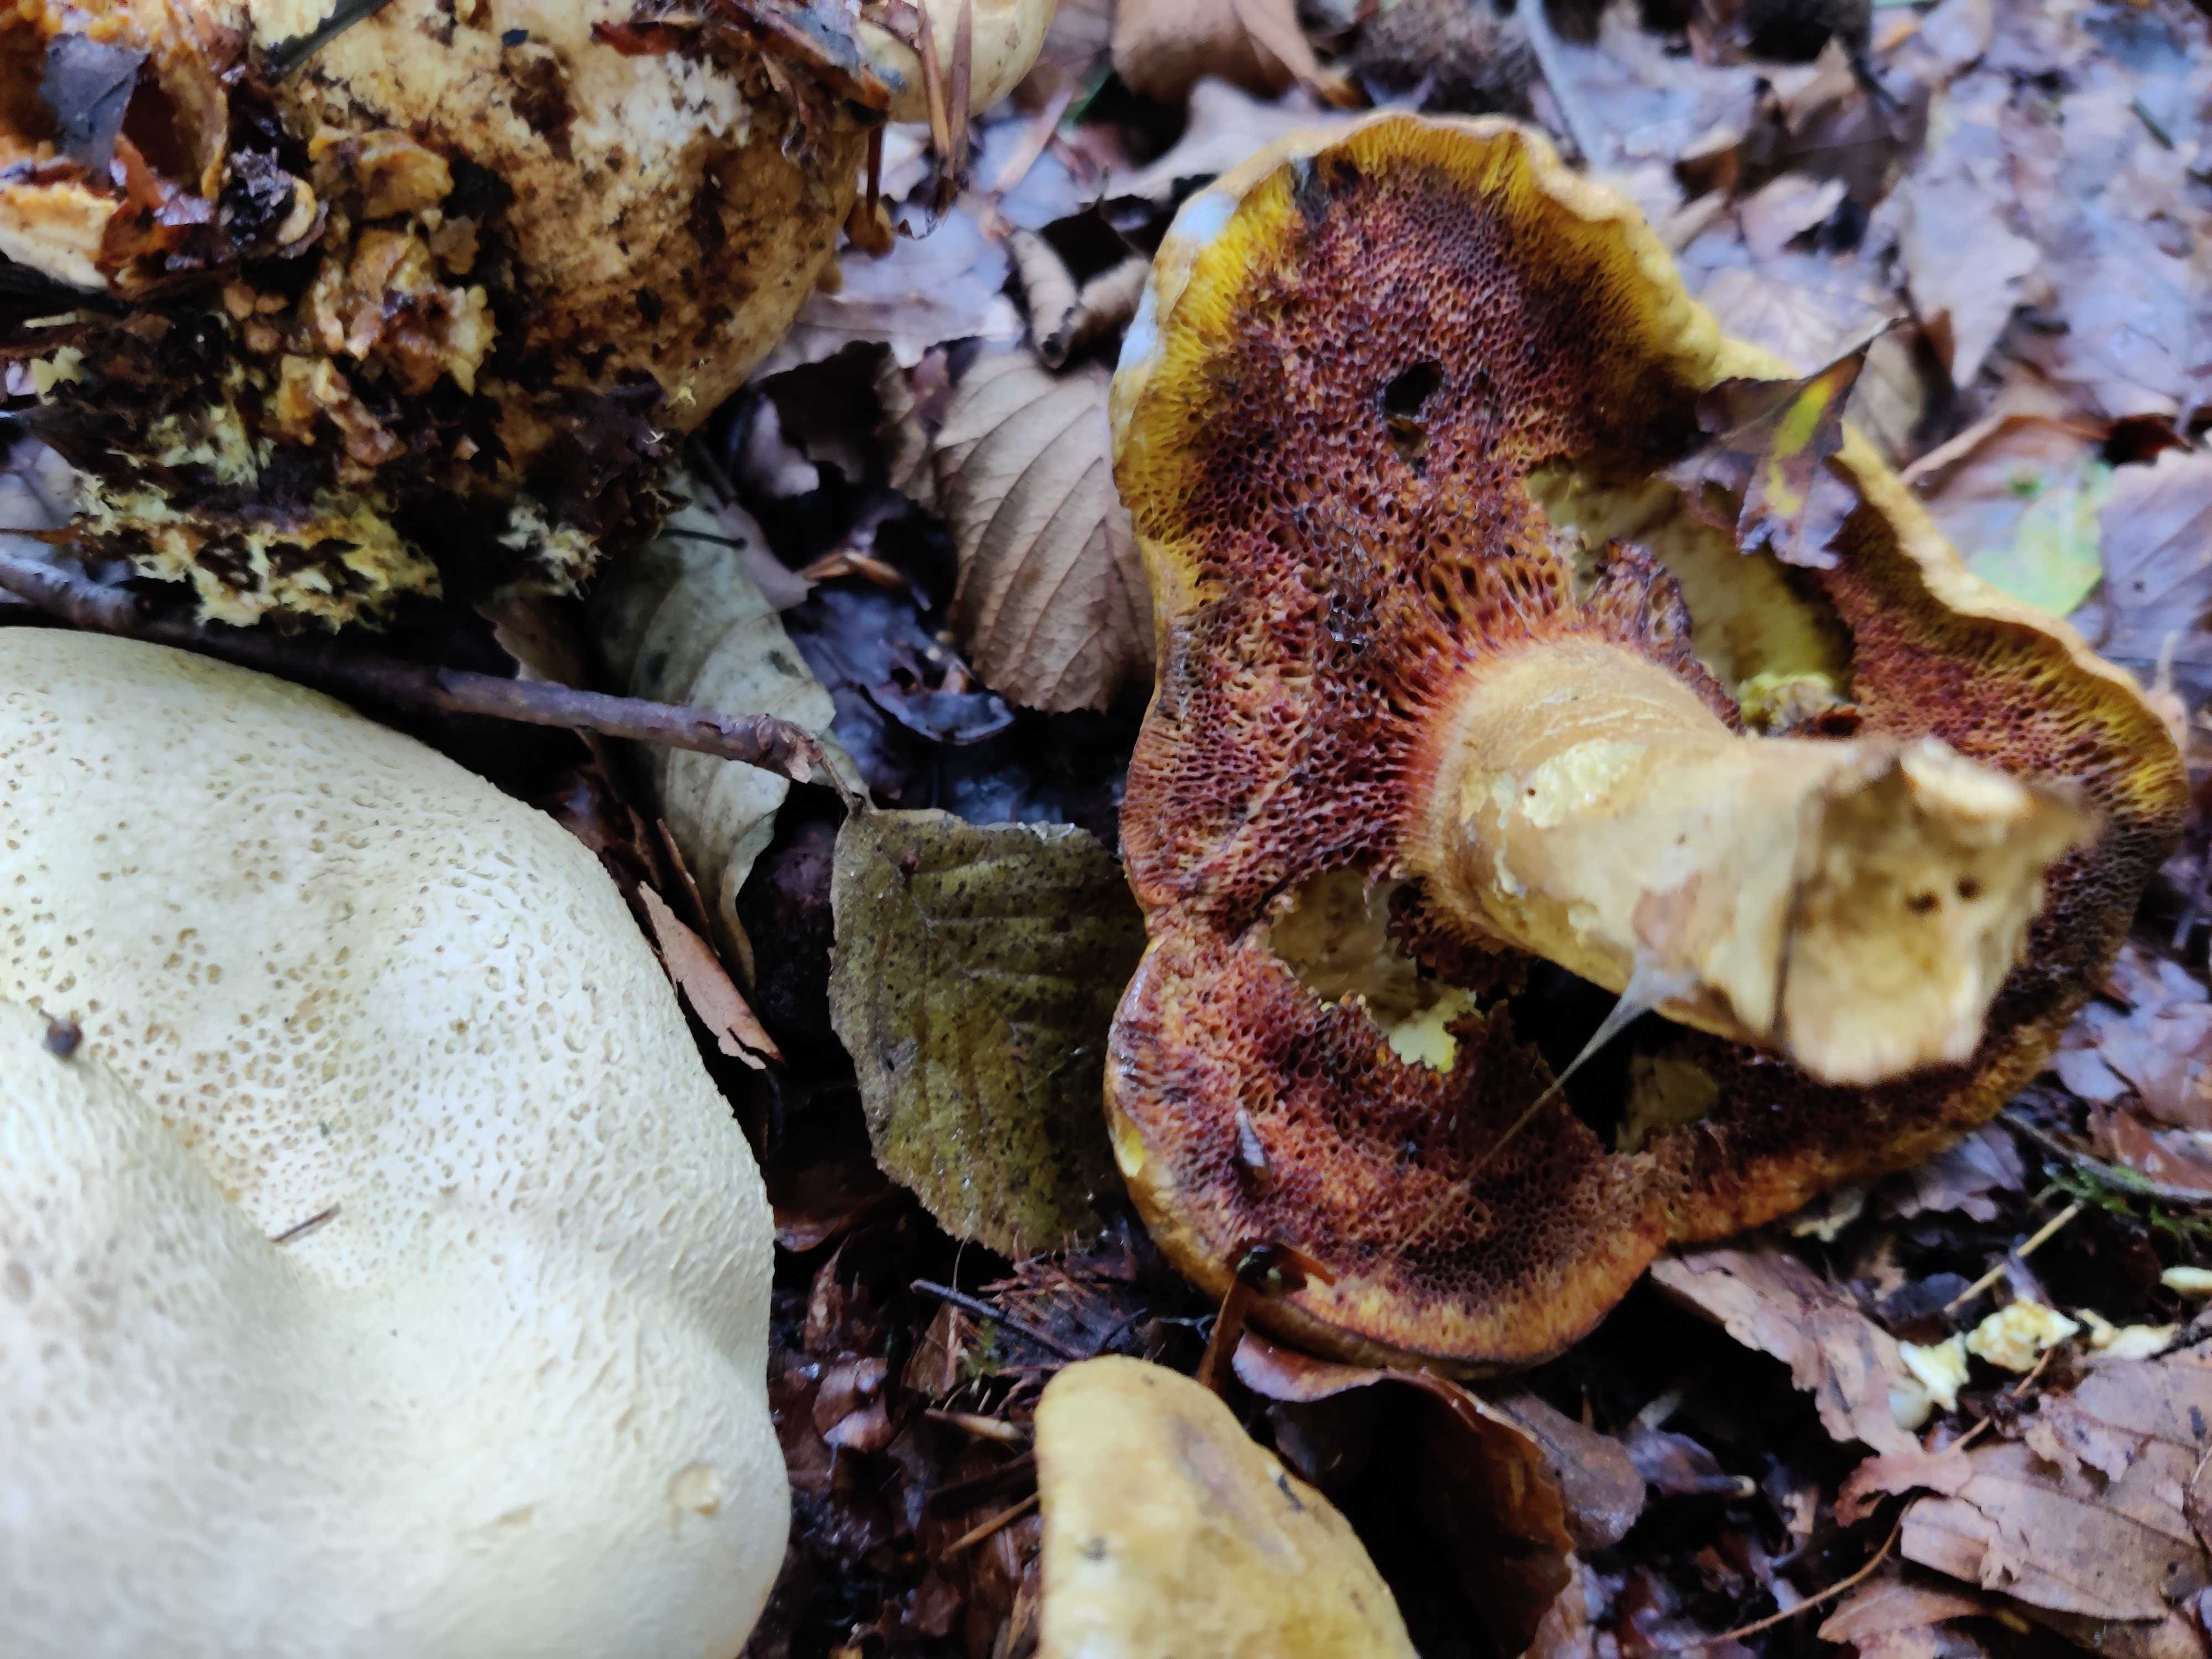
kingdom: Fungi
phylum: Basidiomycota
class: Agaricomycetes
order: Boletales
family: Boletaceae
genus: Pseudoboletus
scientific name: Pseudoboletus parasiticus
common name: snyltende rørhat
